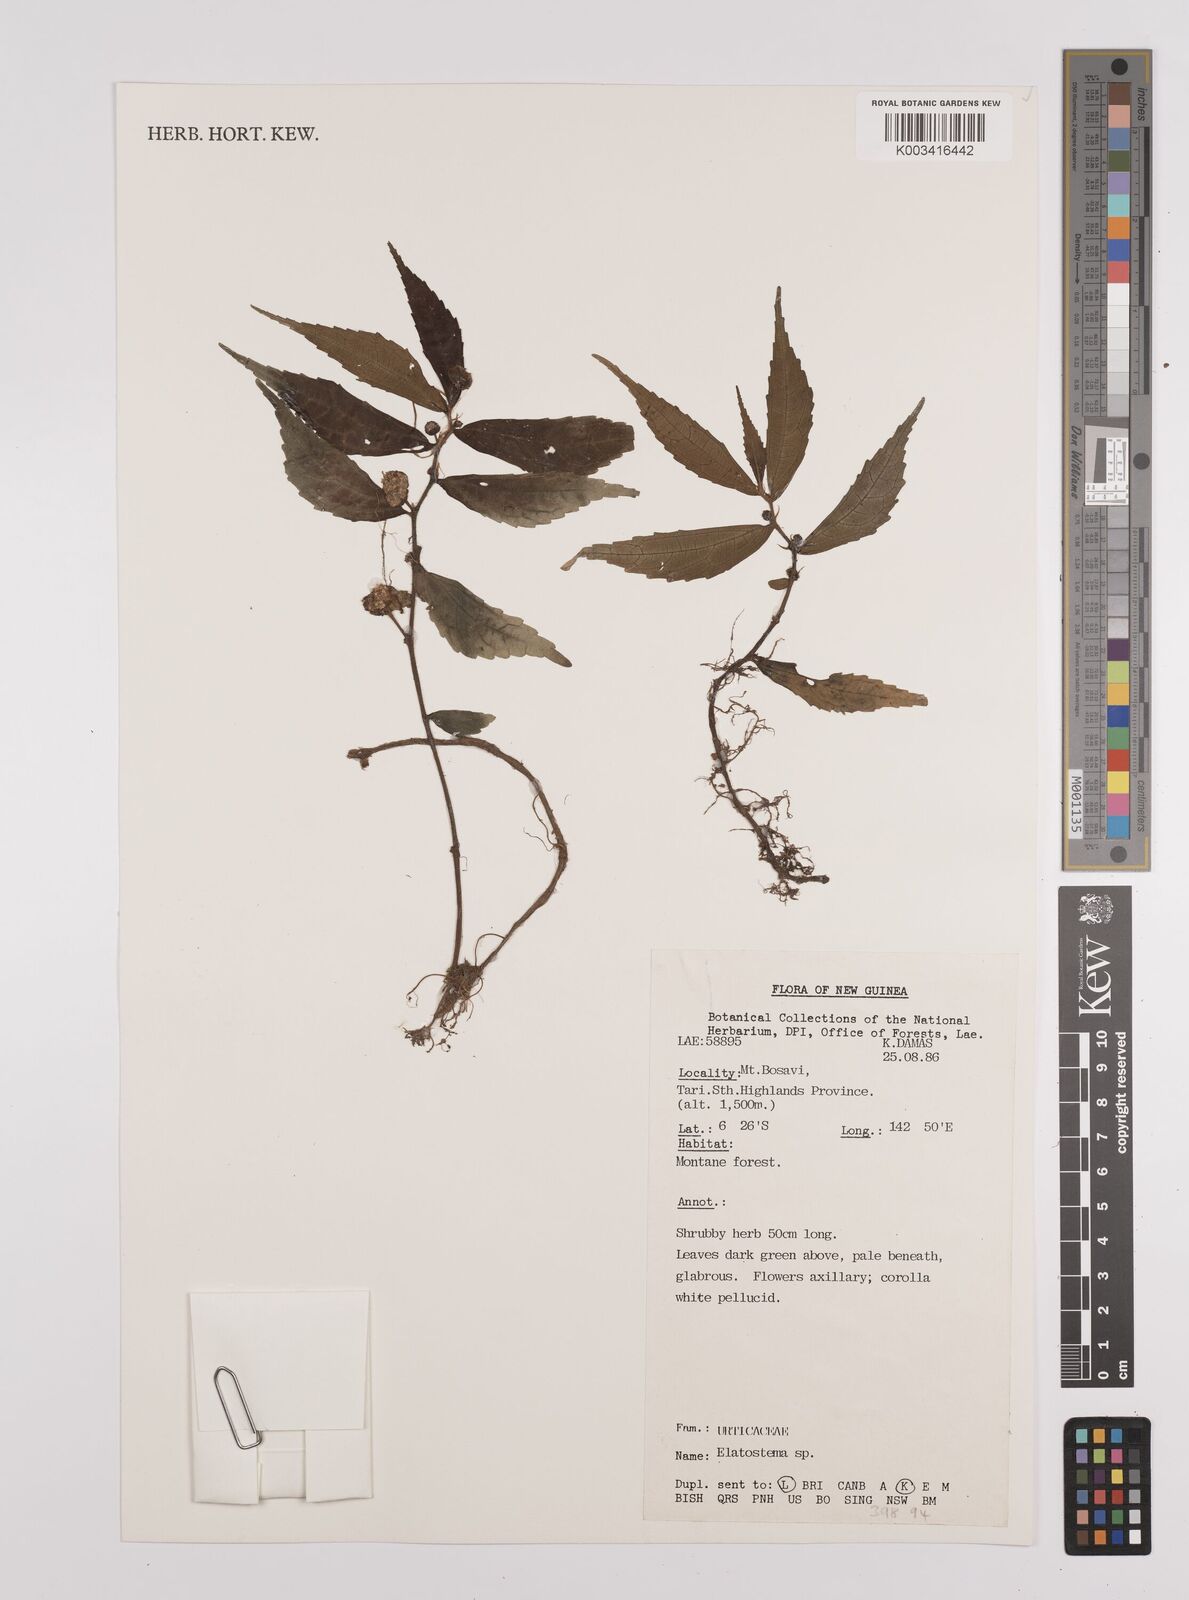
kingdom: Plantae
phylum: Tracheophyta
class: Magnoliopsida
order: Rosales
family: Urticaceae
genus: Elatostema
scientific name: Elatostema
